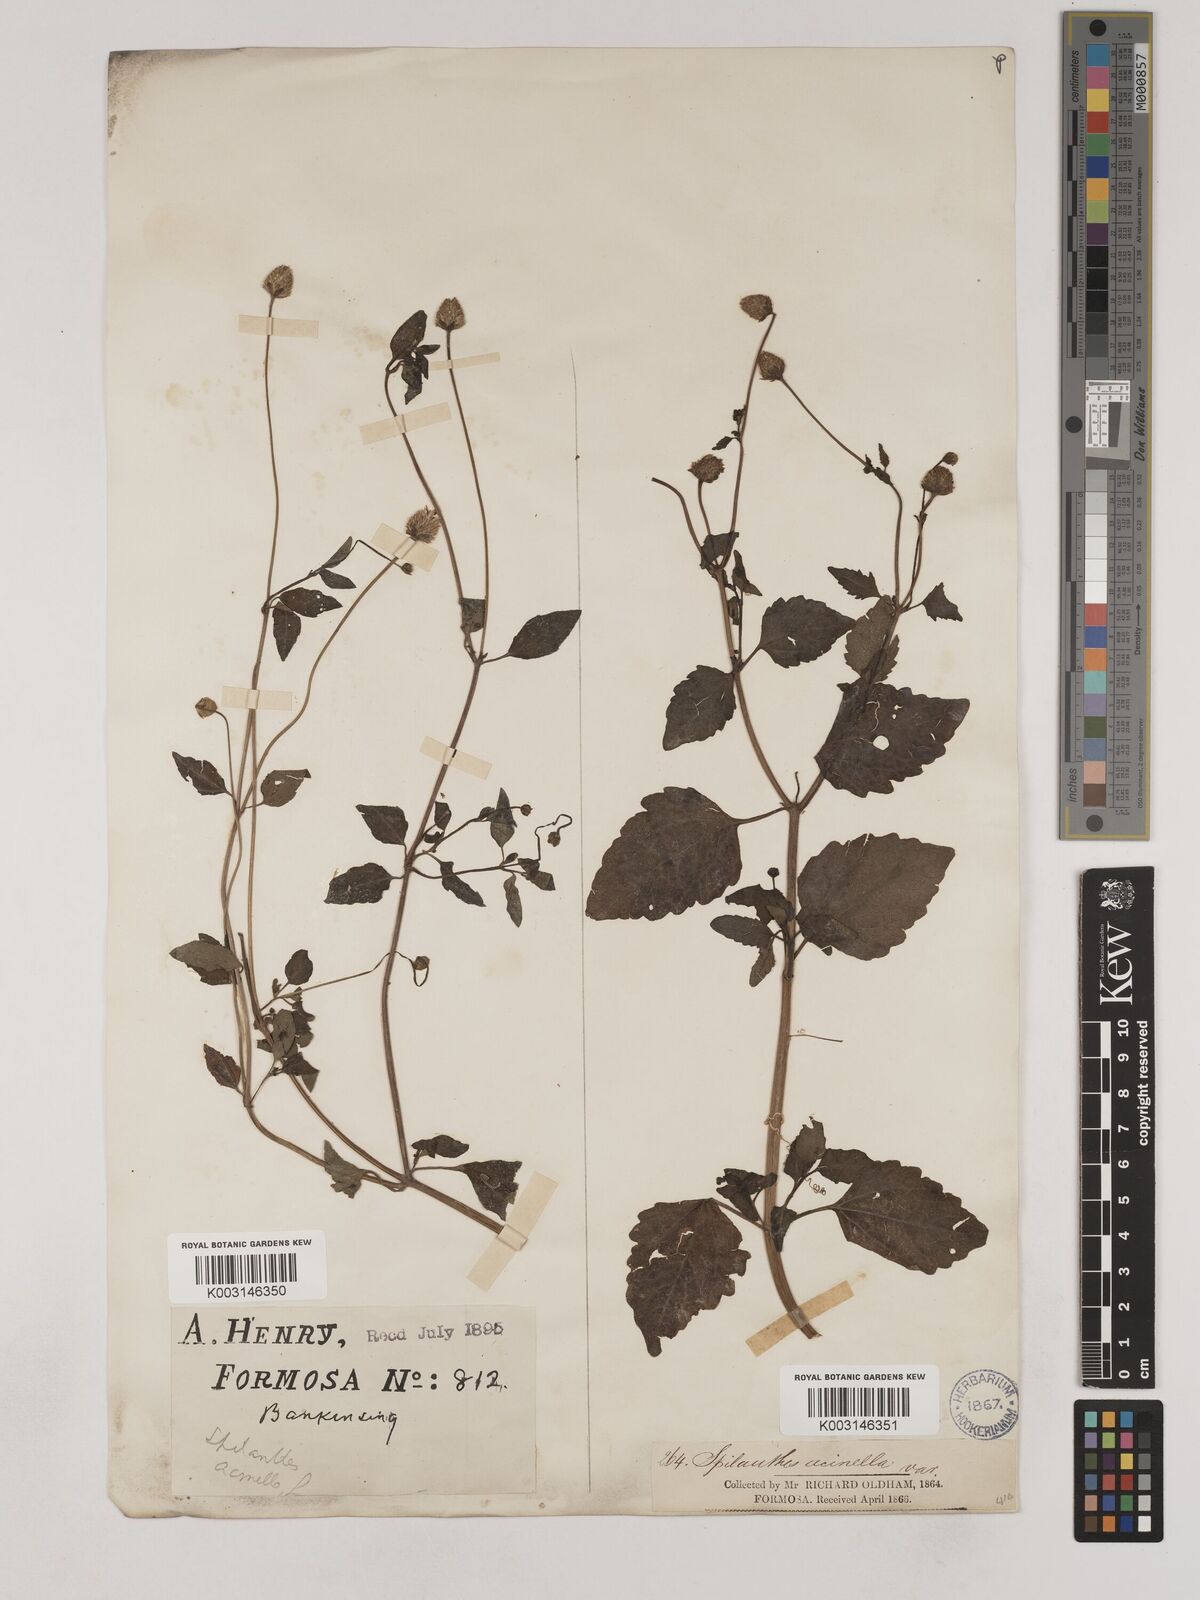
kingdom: Plantae
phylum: Tracheophyta
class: Magnoliopsida
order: Asterales
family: Asteraceae
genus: Acmella
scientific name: Acmella paniculata
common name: Panicled spot flower
